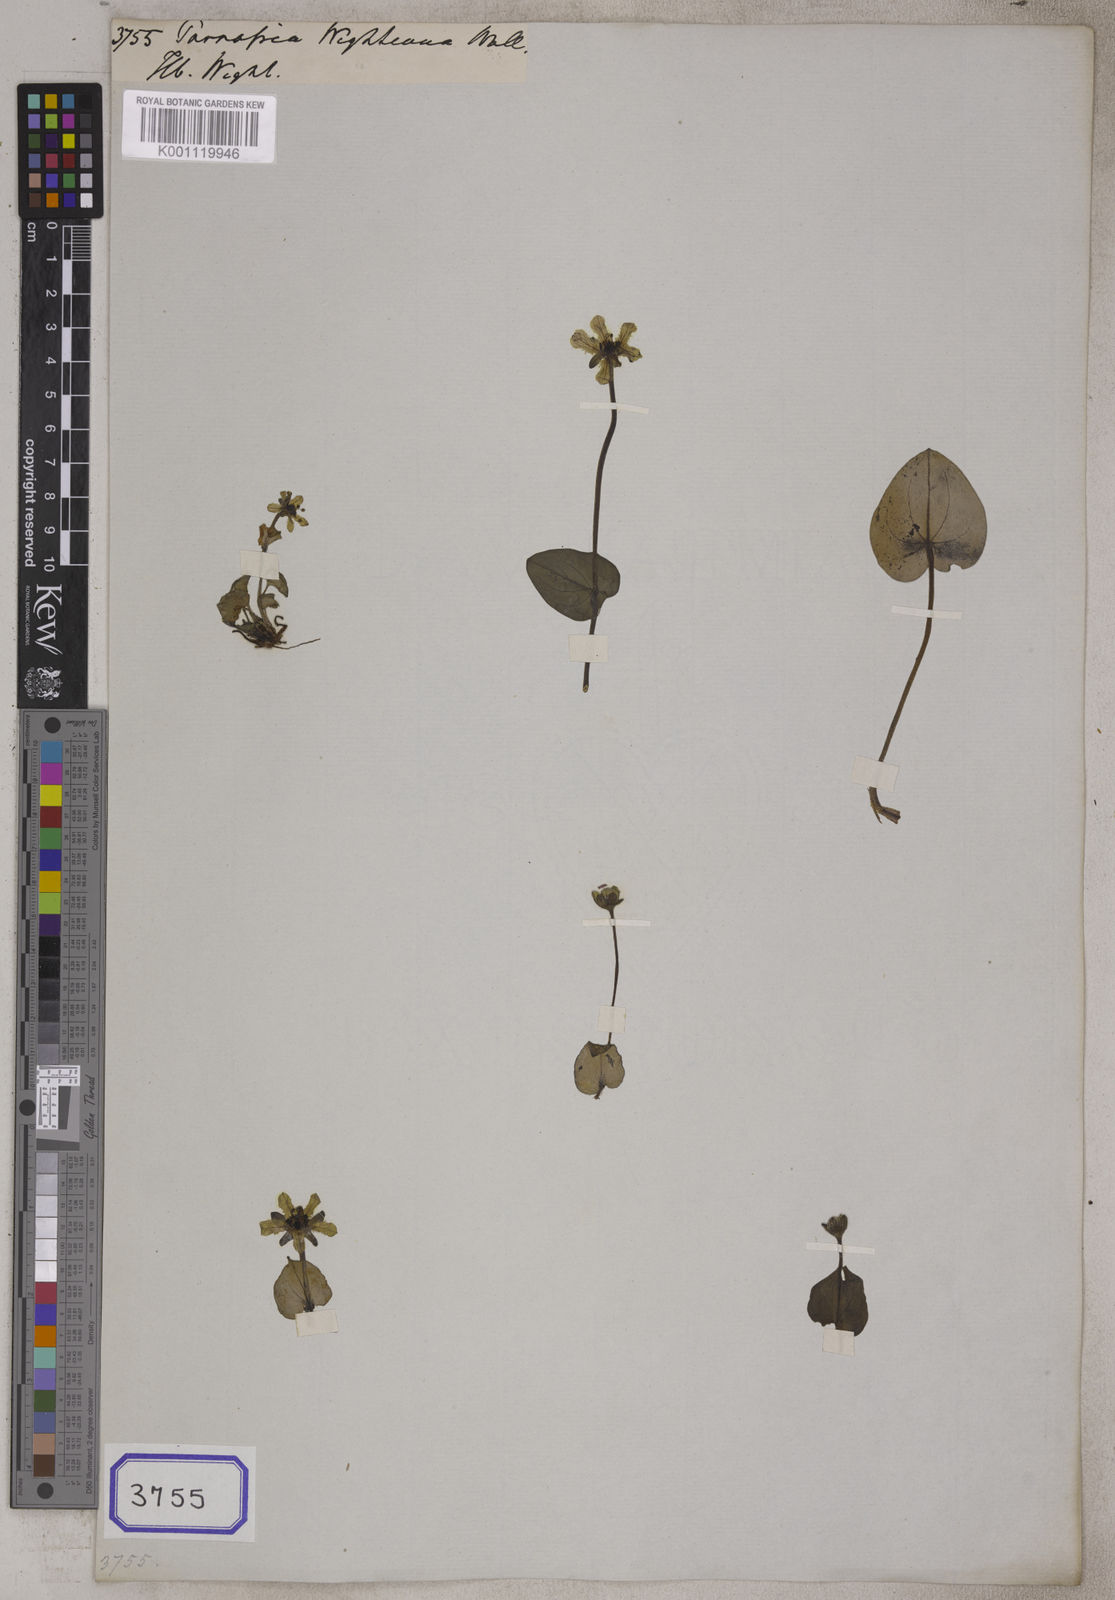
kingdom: Plantae
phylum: Tracheophyta
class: Magnoliopsida
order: Celastrales
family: Parnassiaceae
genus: Parnassia
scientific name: Parnassia
